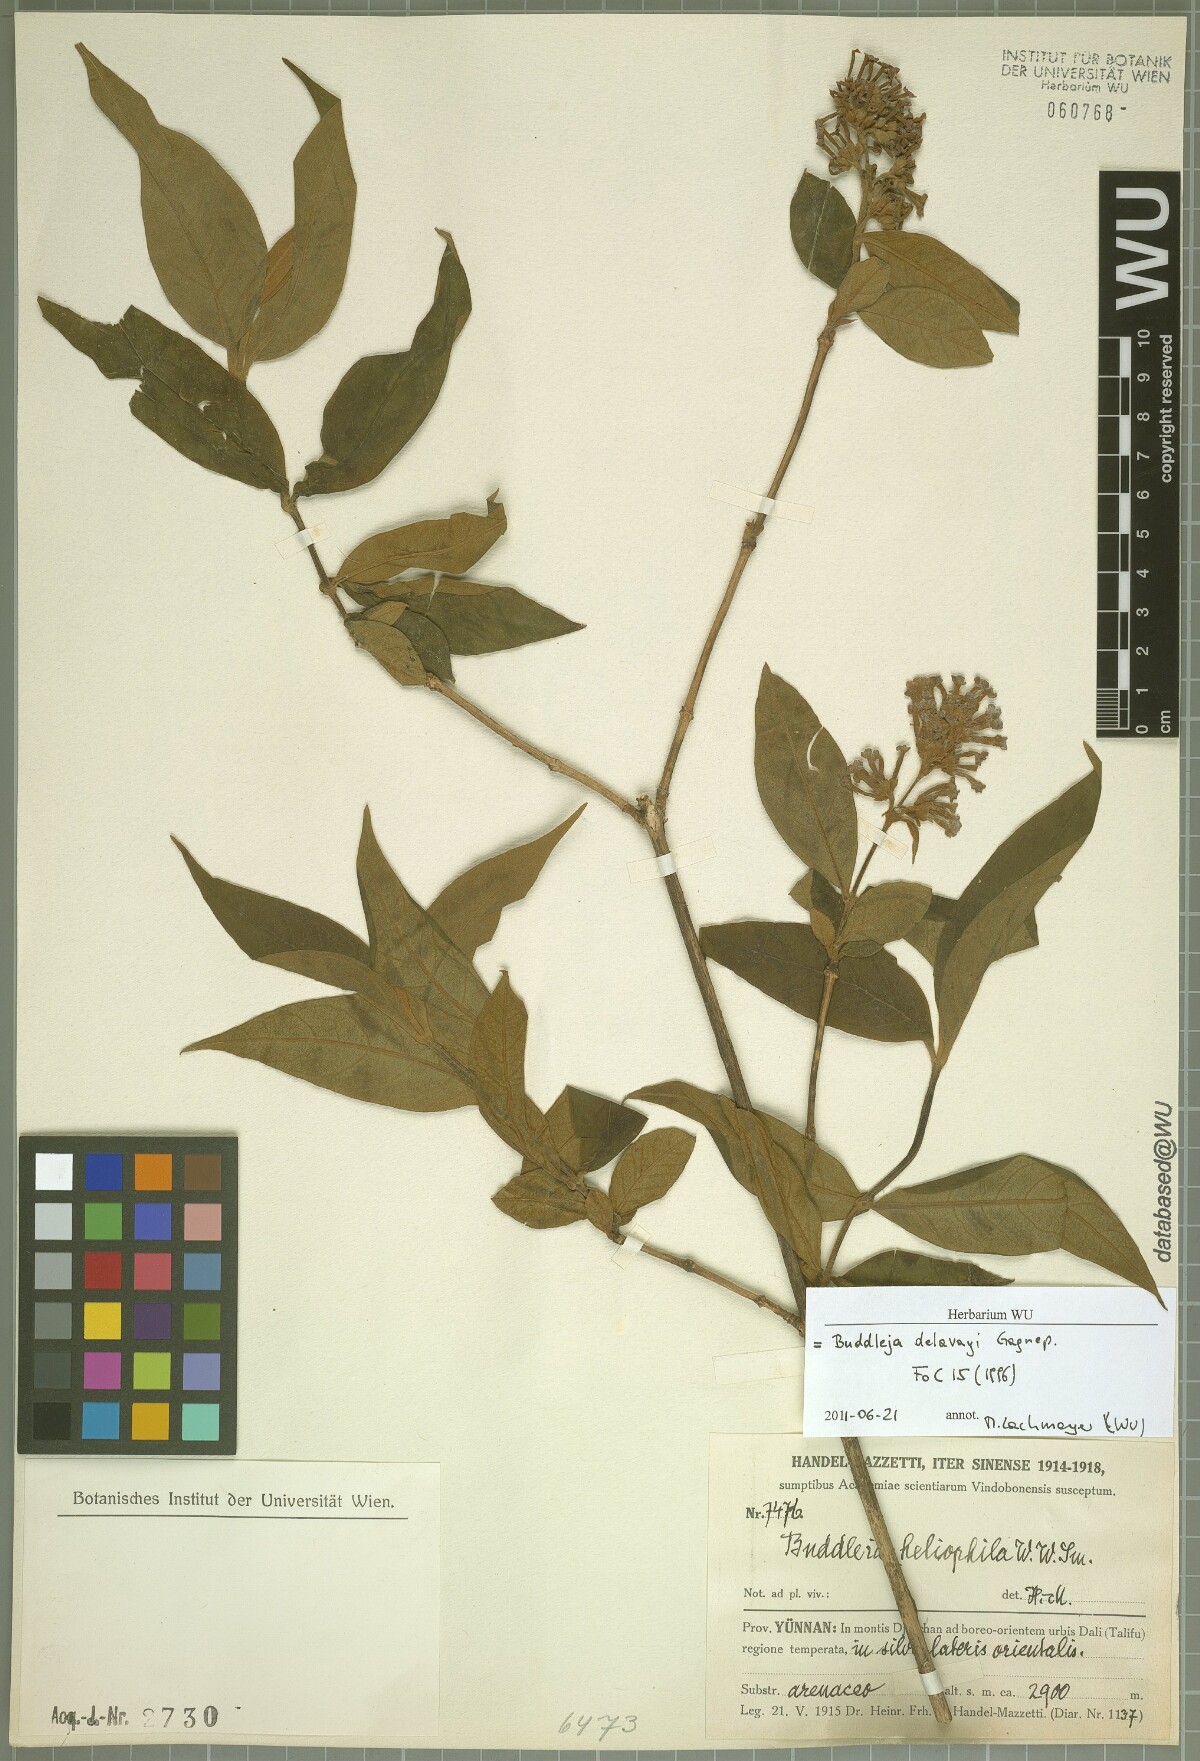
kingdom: Plantae
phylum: Tracheophyta
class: Magnoliopsida
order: Lamiales
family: Scrophulariaceae
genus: Buddleja
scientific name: Buddleja delavayi
